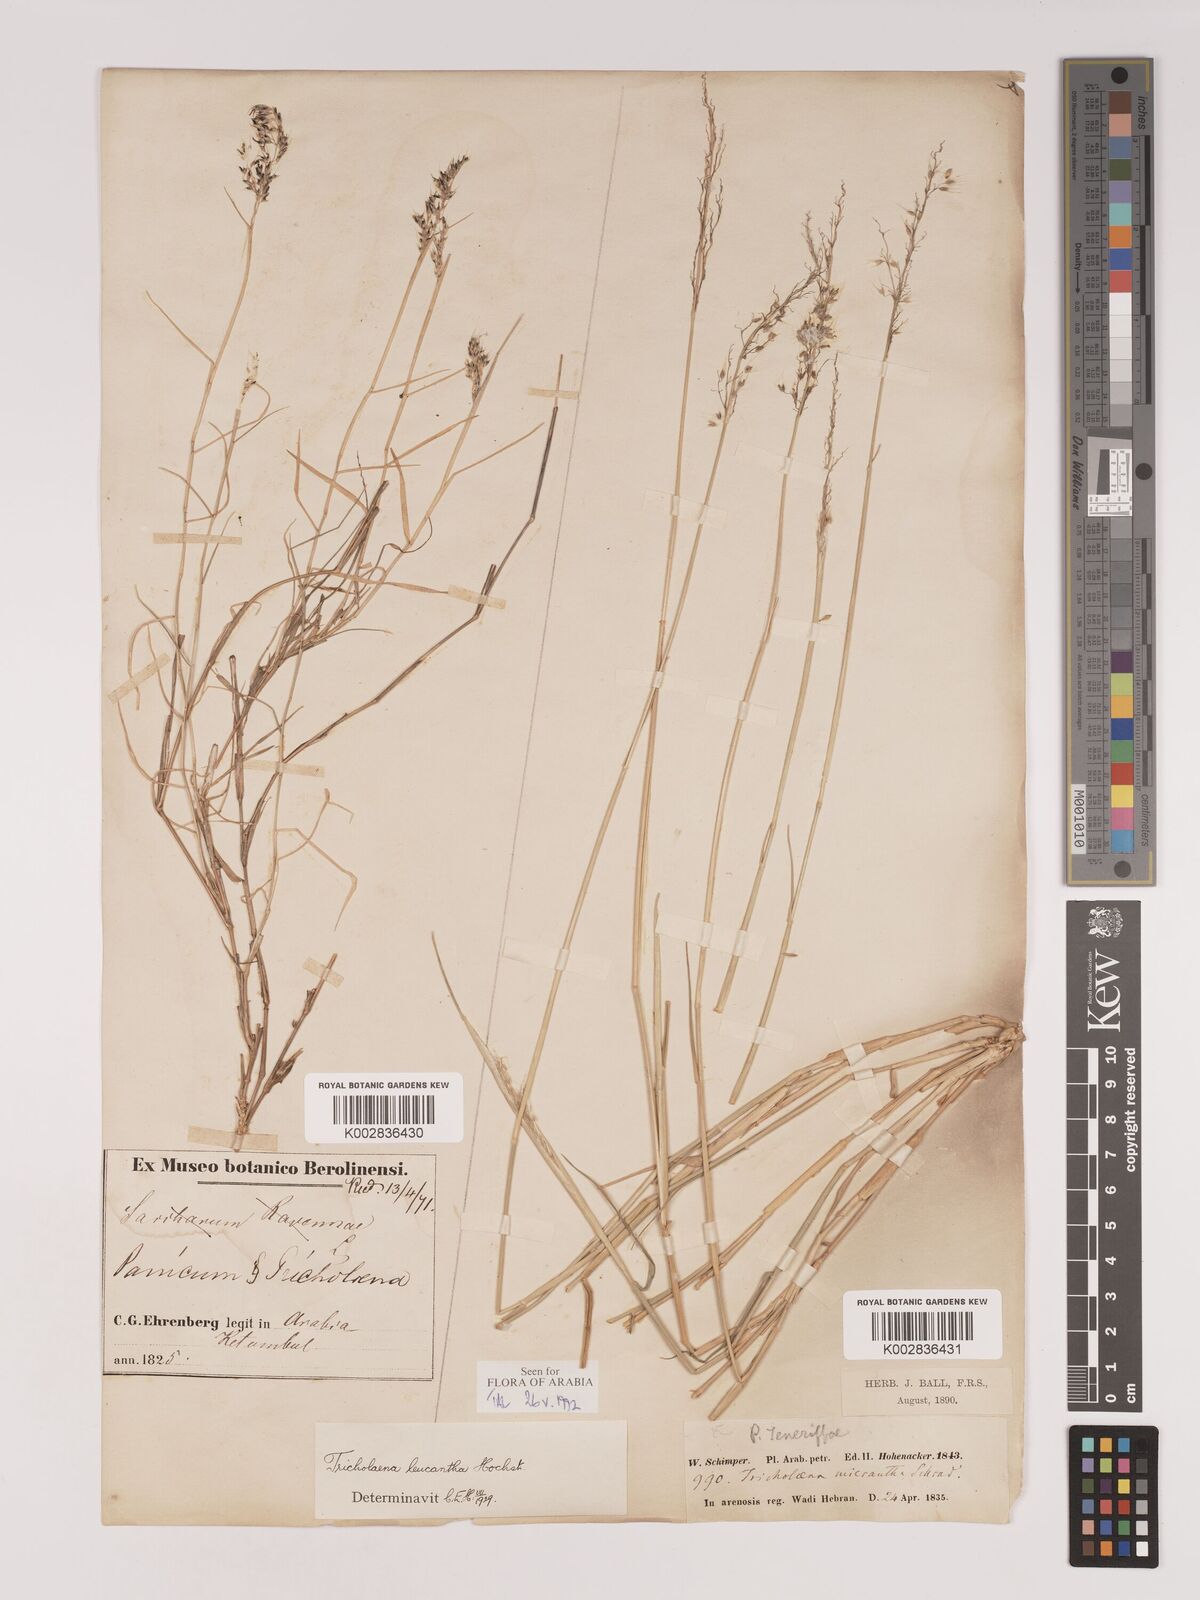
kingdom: Plantae
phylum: Tracheophyta
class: Liliopsida
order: Poales
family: Poaceae
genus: Tricholaena
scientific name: Tricholaena teneriffae
